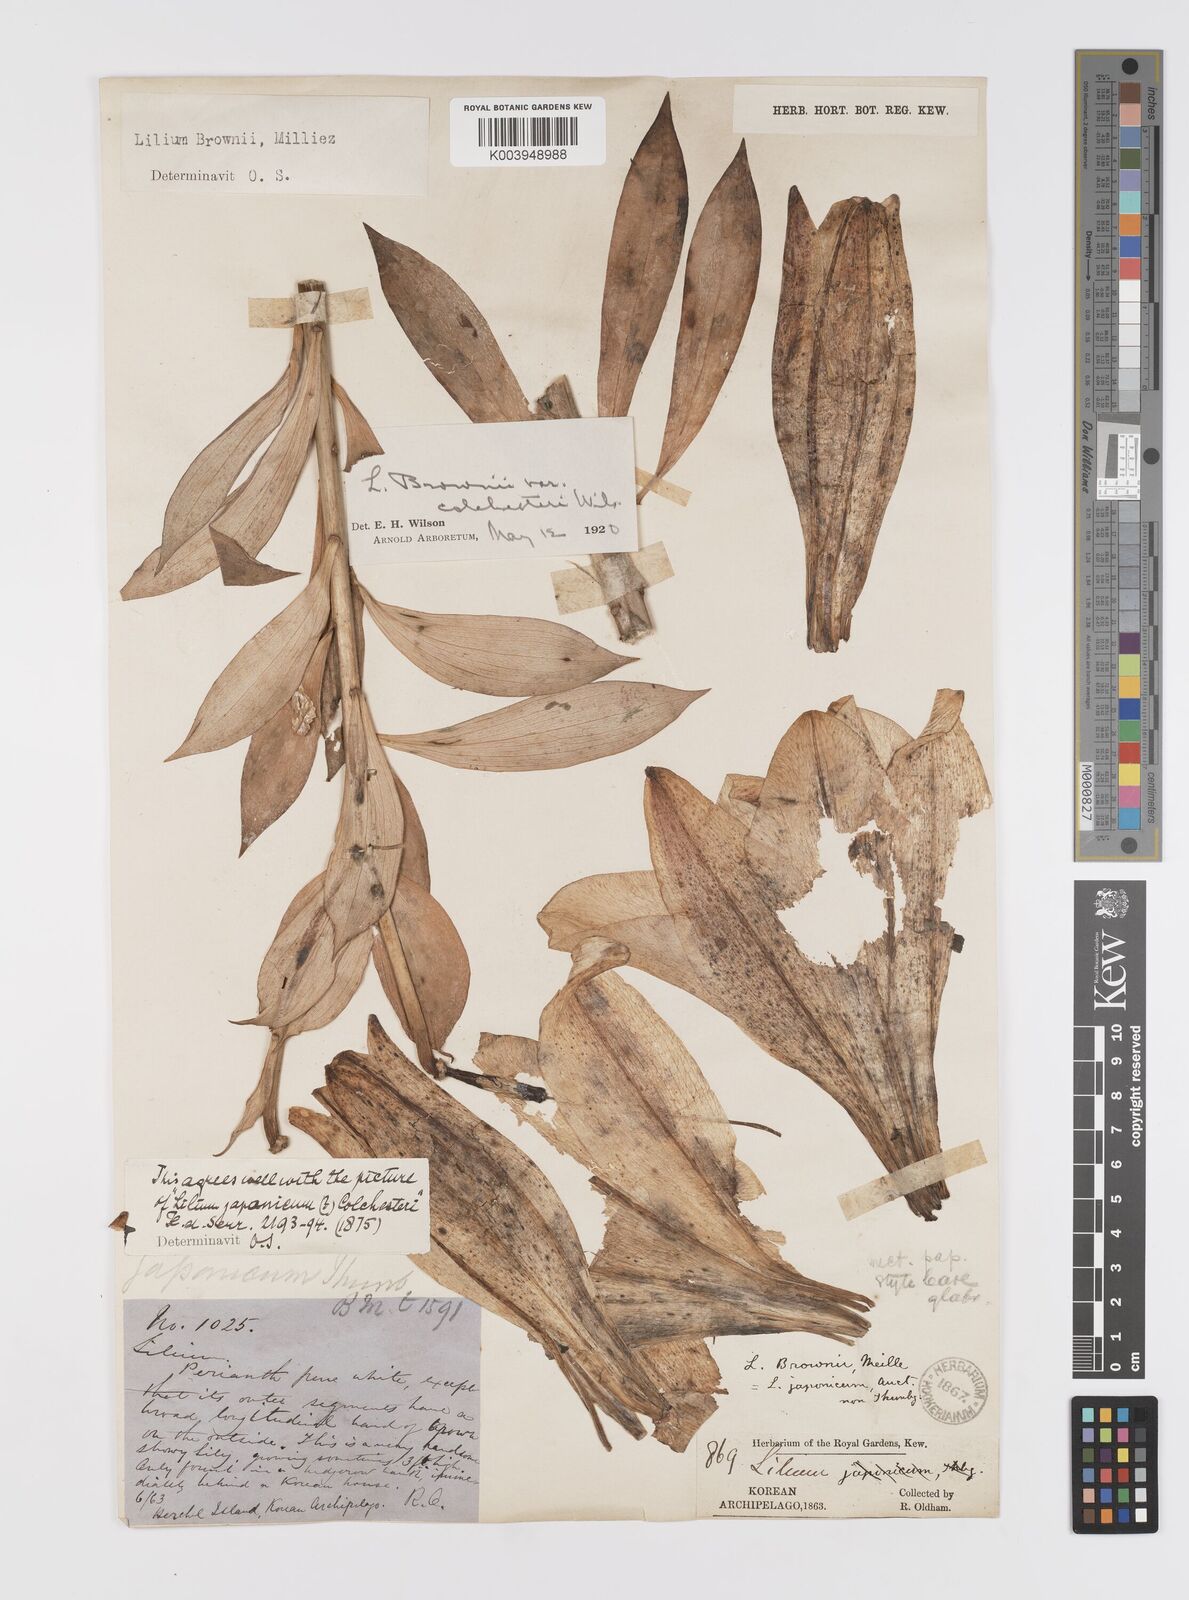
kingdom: Plantae
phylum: Tracheophyta
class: Liliopsida
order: Liliales
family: Liliaceae
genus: Lilium
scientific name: Lilium japonicum
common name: Japanese lily
